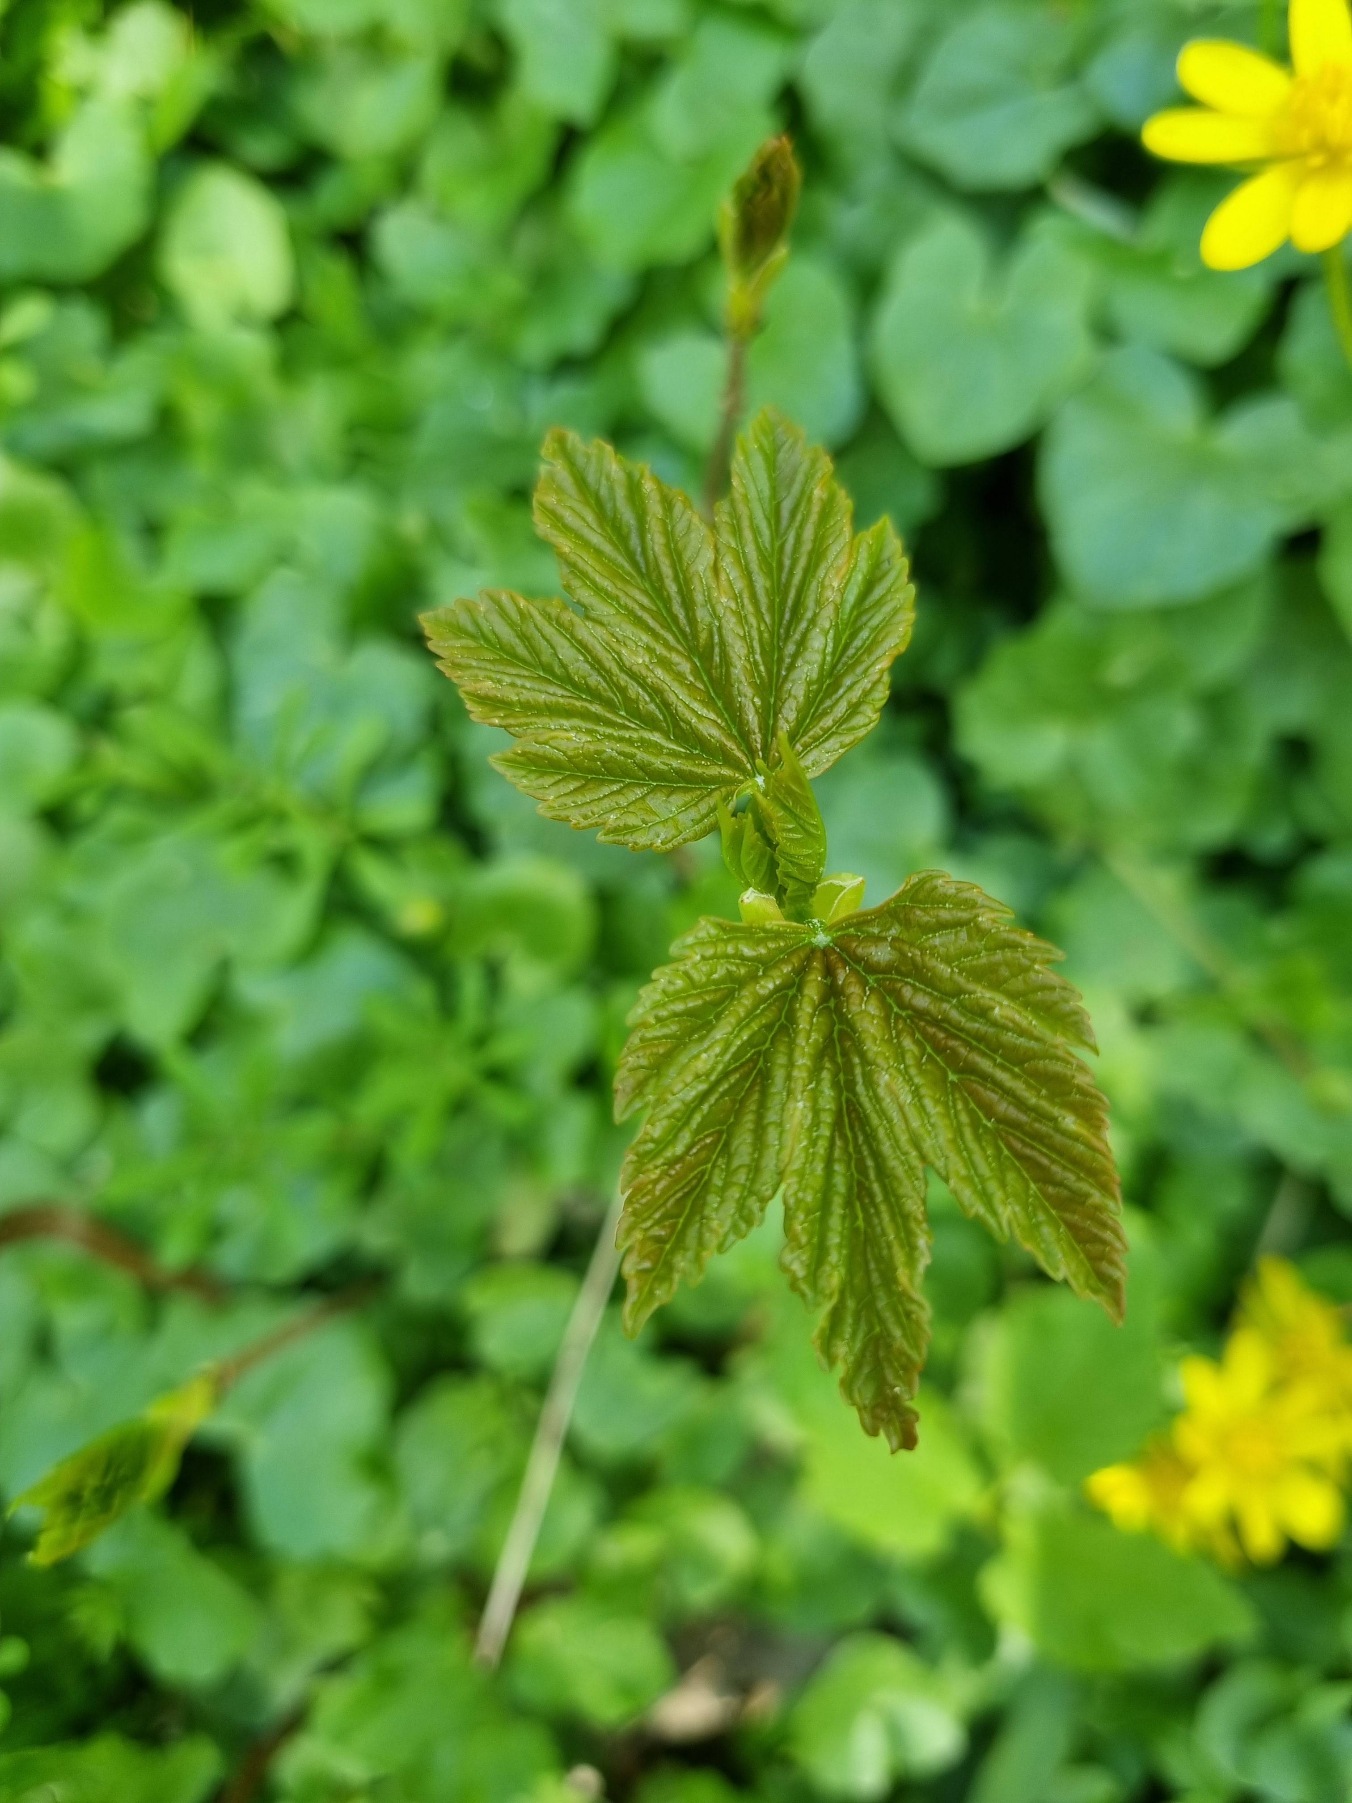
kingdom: Plantae
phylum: Tracheophyta
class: Magnoliopsida
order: Sapindales
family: Sapindaceae
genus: Acer
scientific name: Acer pseudoplatanus
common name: Ahorn
